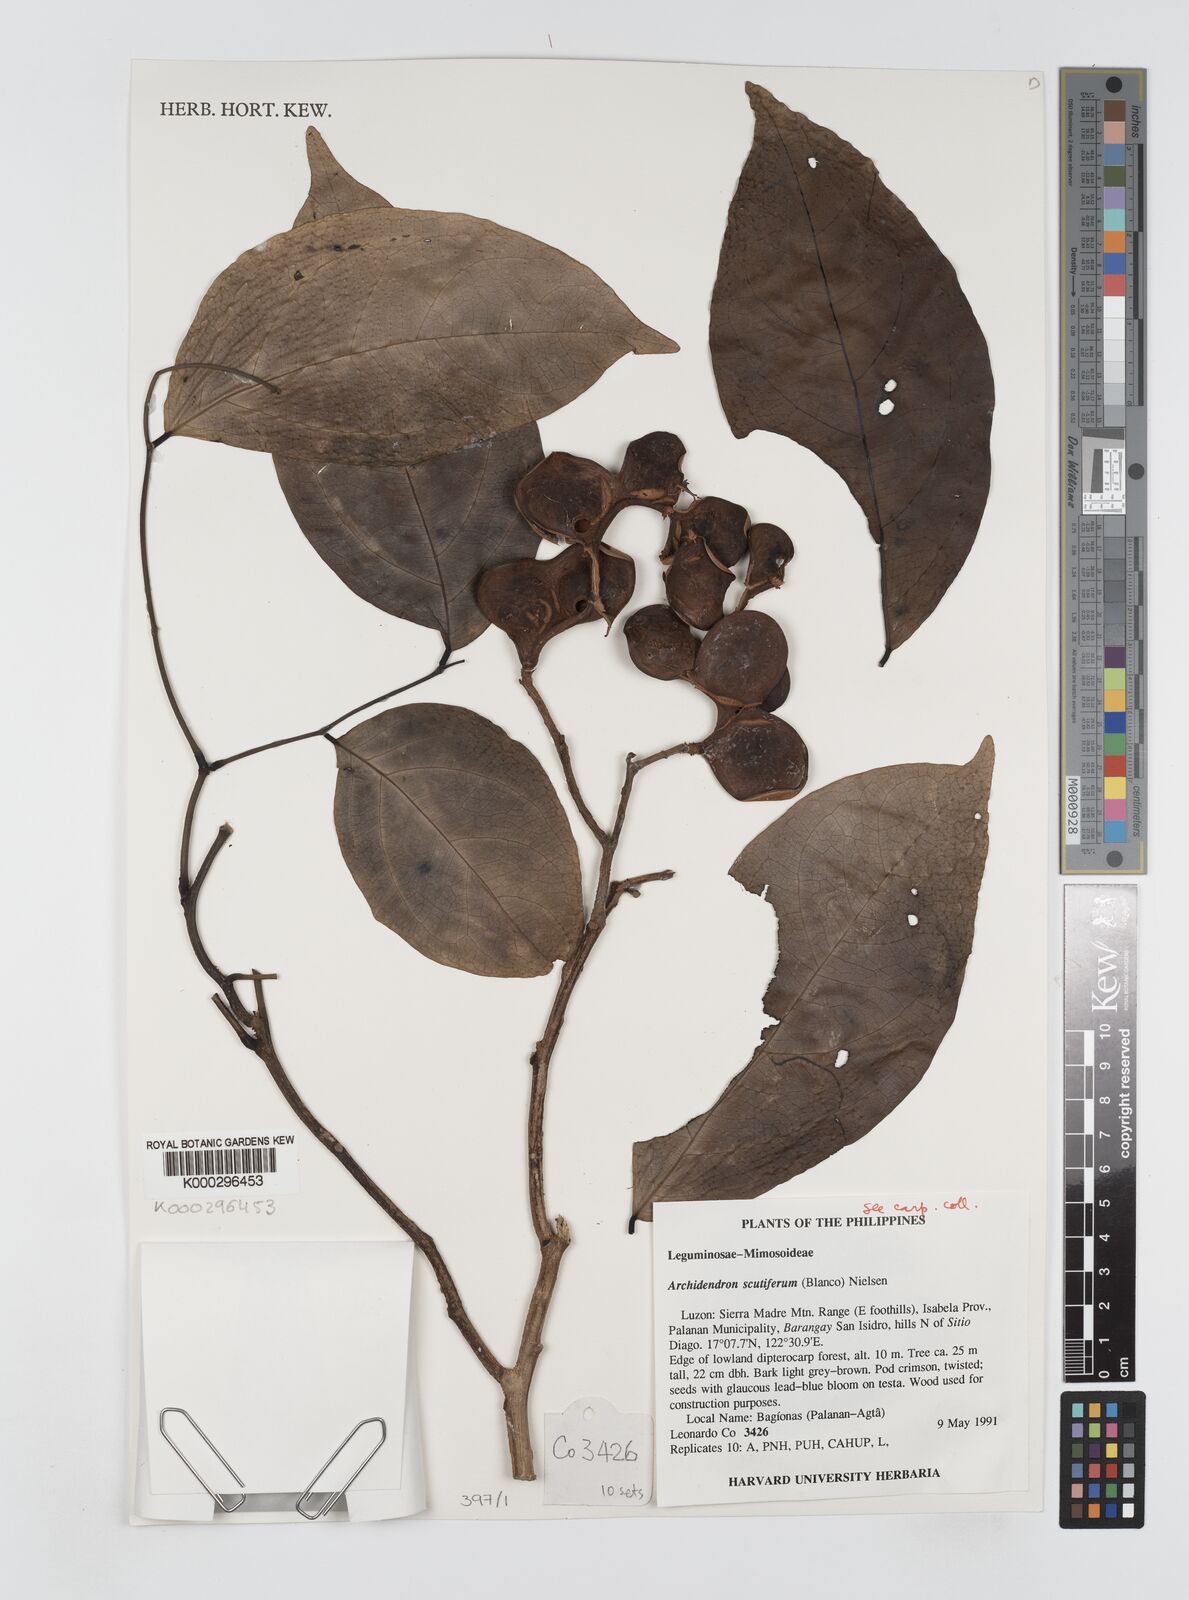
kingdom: Plantae
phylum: Tracheophyta
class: Magnoliopsida
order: Fabales
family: Fabaceae
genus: Archidendron
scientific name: Archidendron scutiferum
